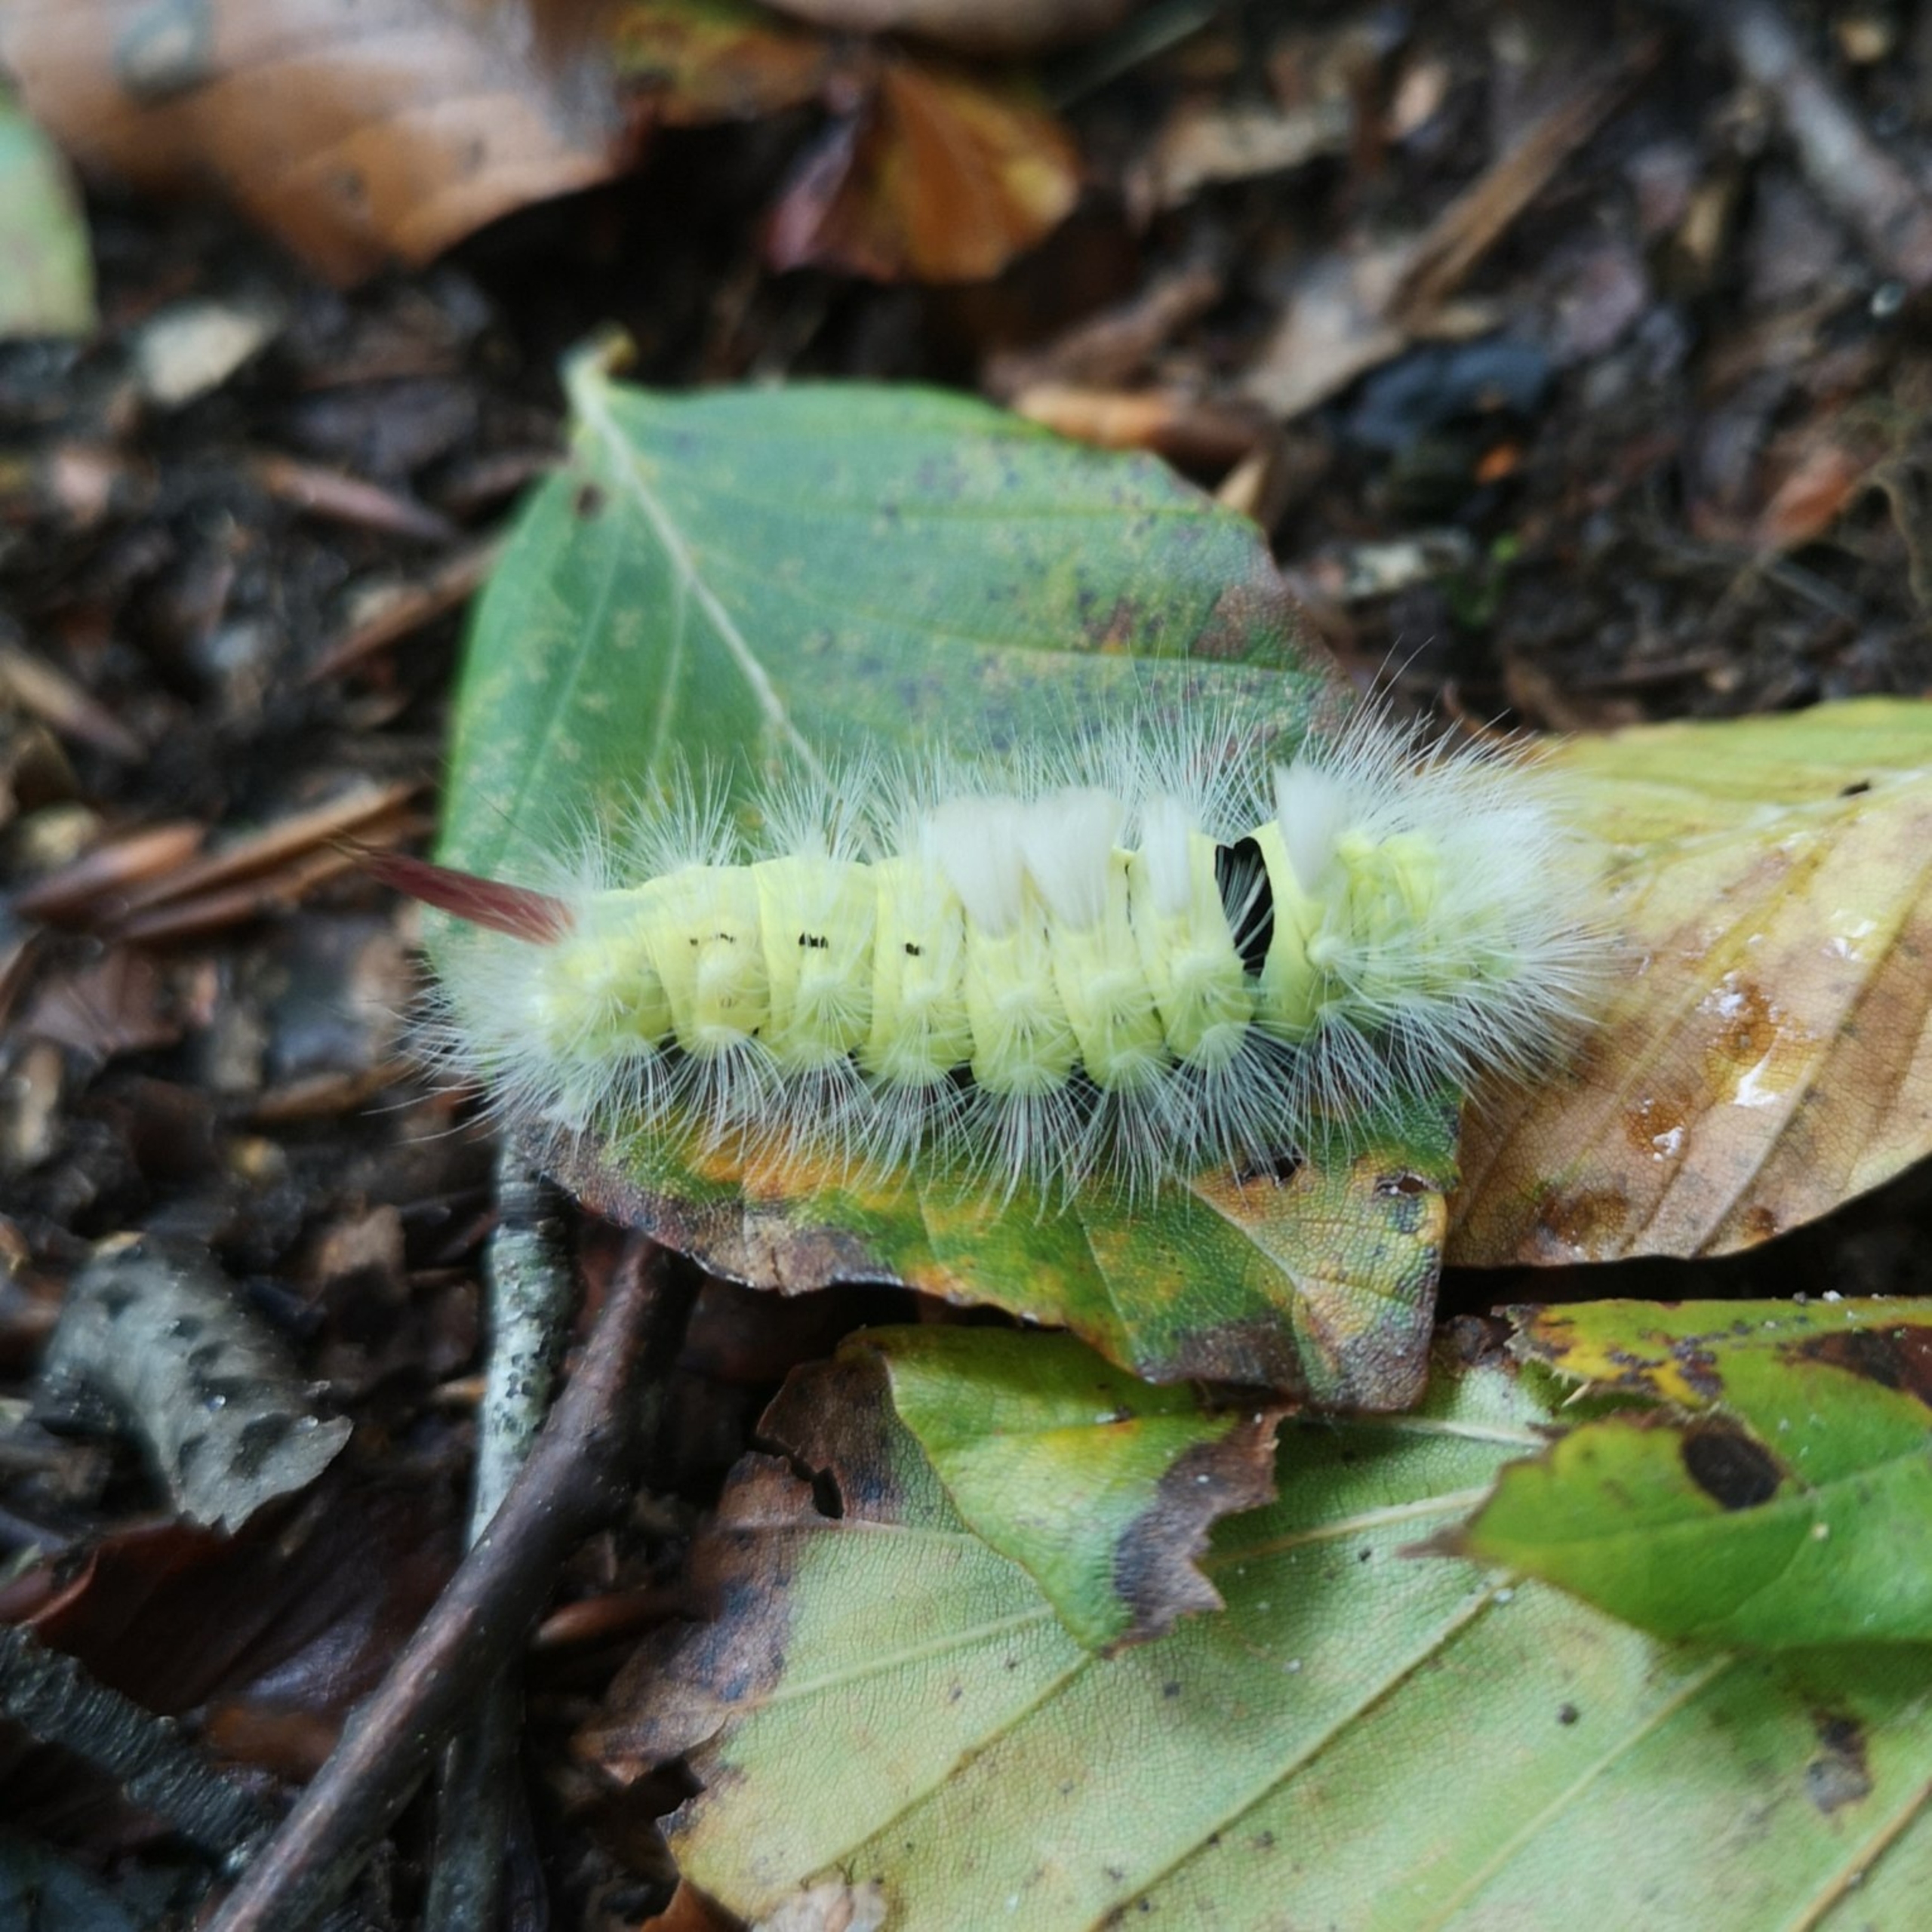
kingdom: Animalia
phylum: Arthropoda
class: Insecta
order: Lepidoptera
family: Erebidae
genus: Calliteara
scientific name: Calliteara pudibunda
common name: Bøgenonne
